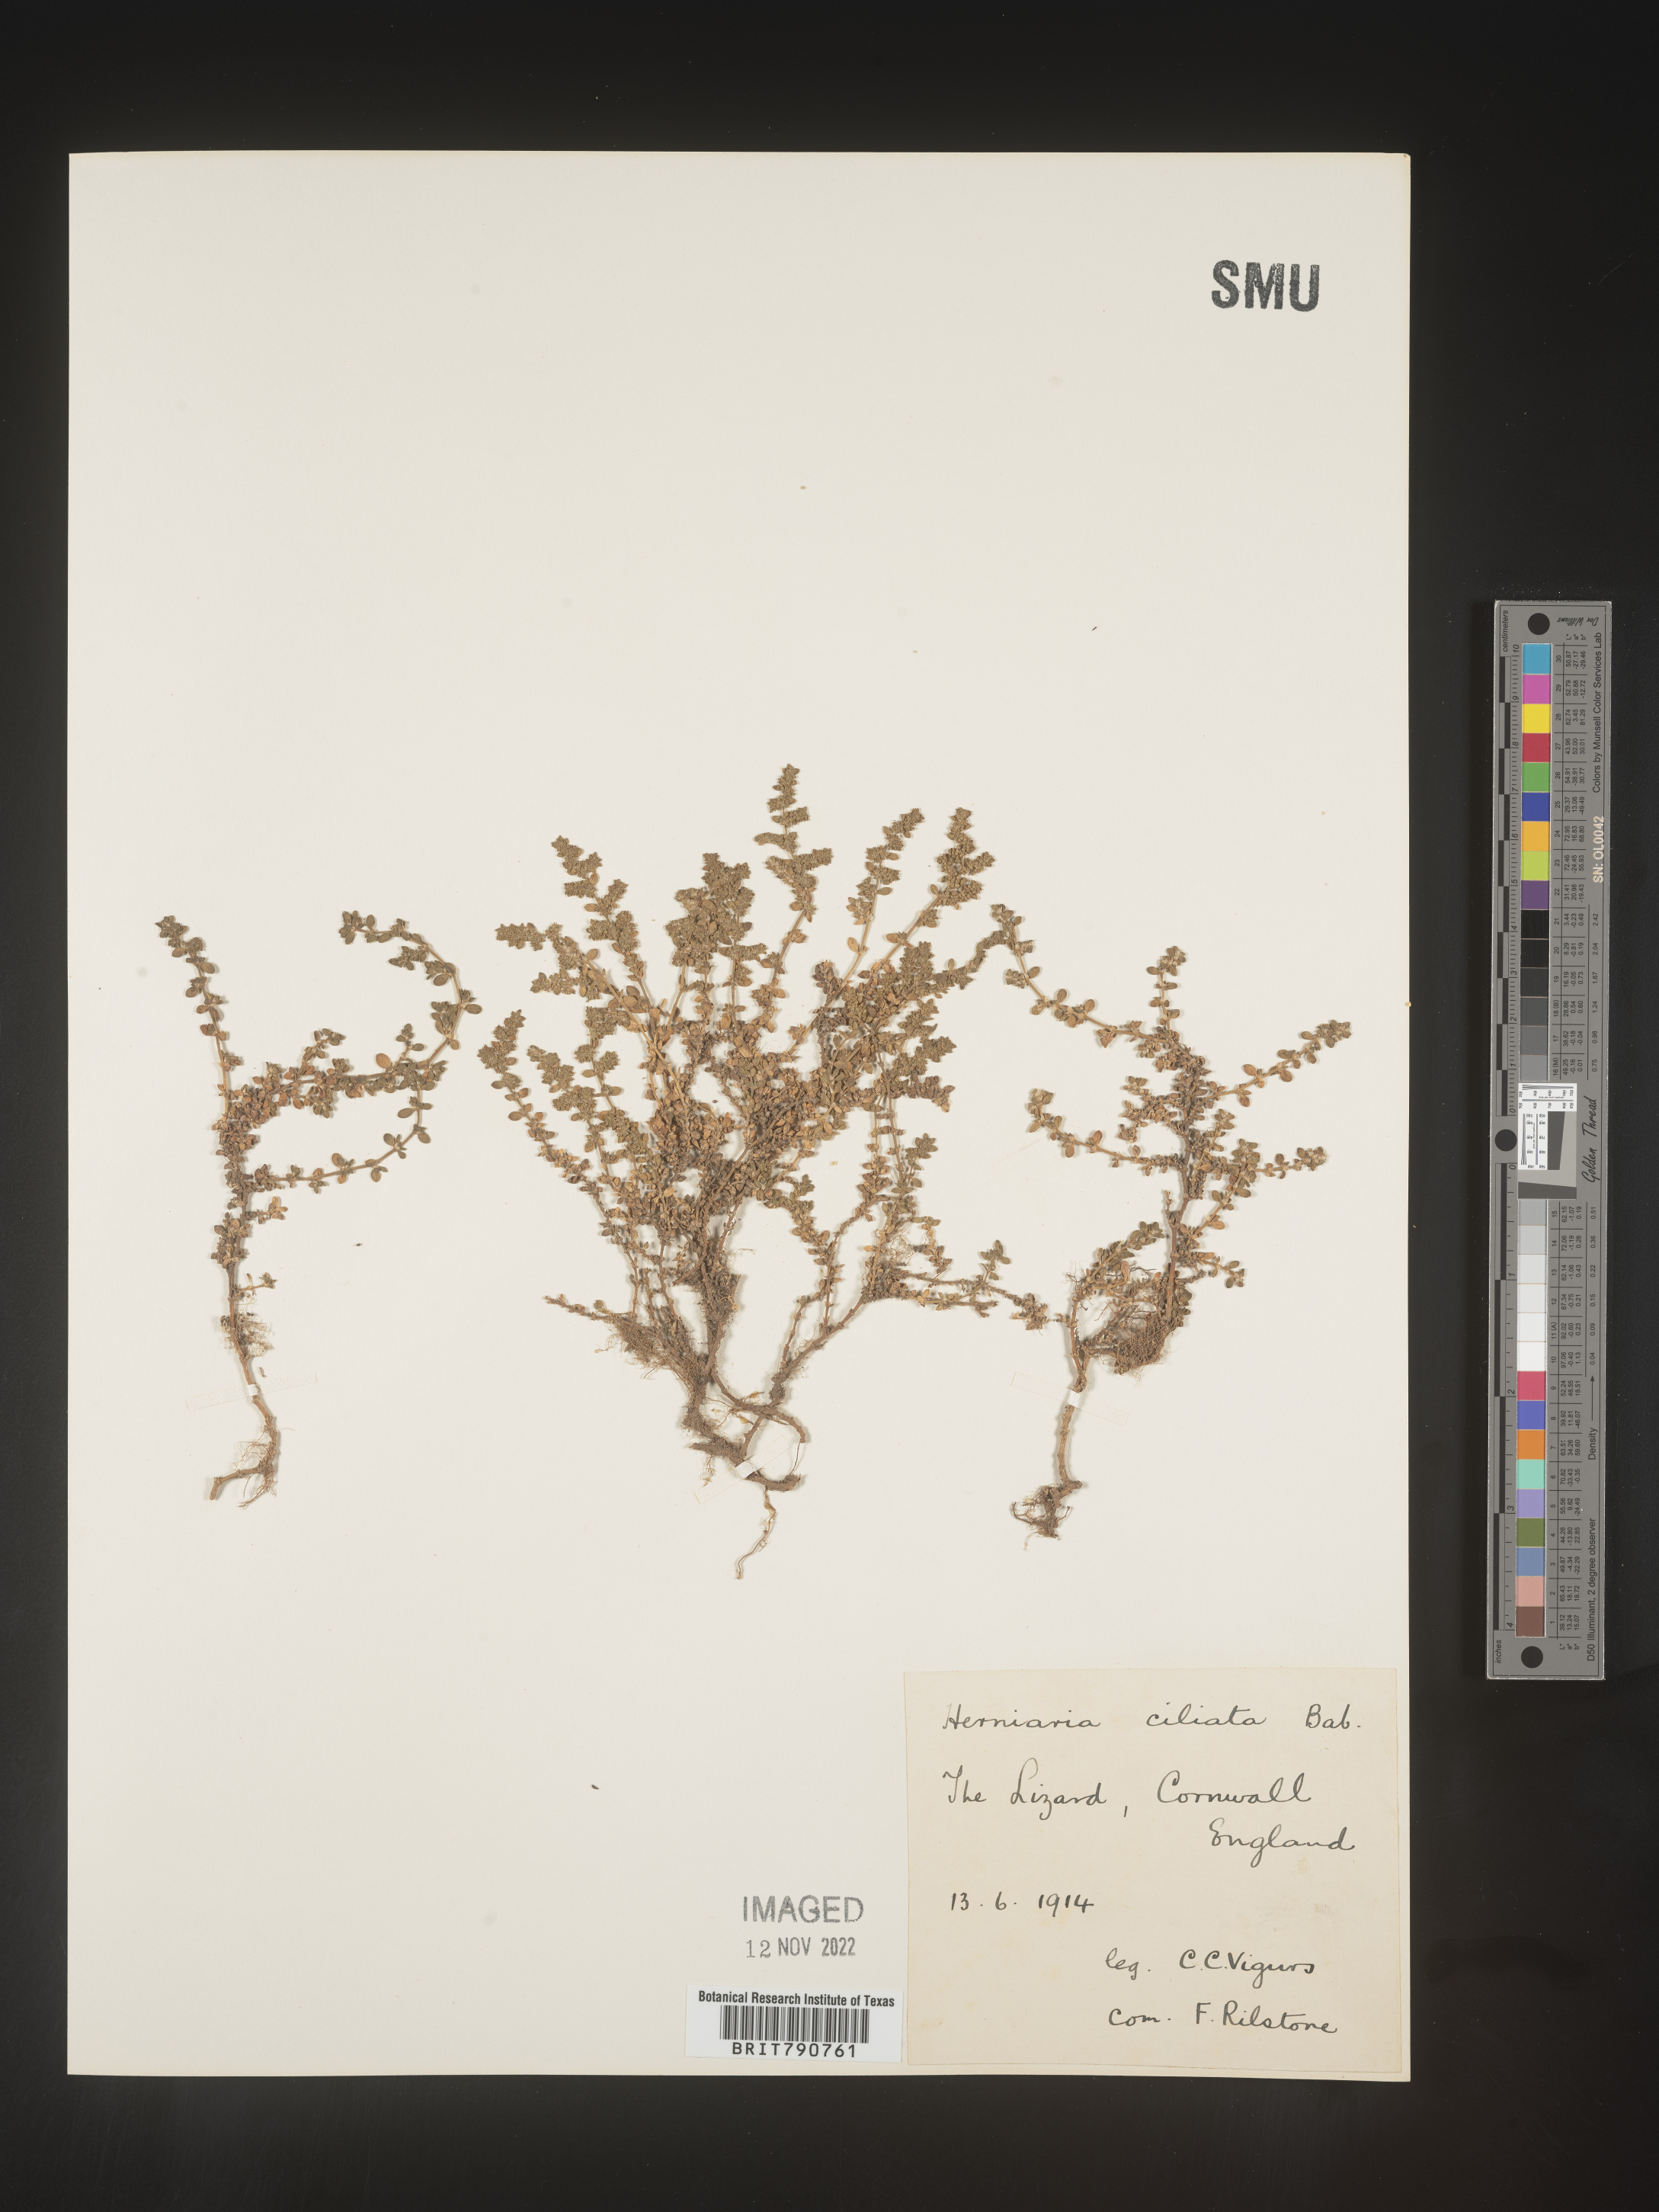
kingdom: Plantae
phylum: Tracheophyta
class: Magnoliopsida
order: Caryophyllales
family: Caryophyllaceae
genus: Herniaria
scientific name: Herniaria
